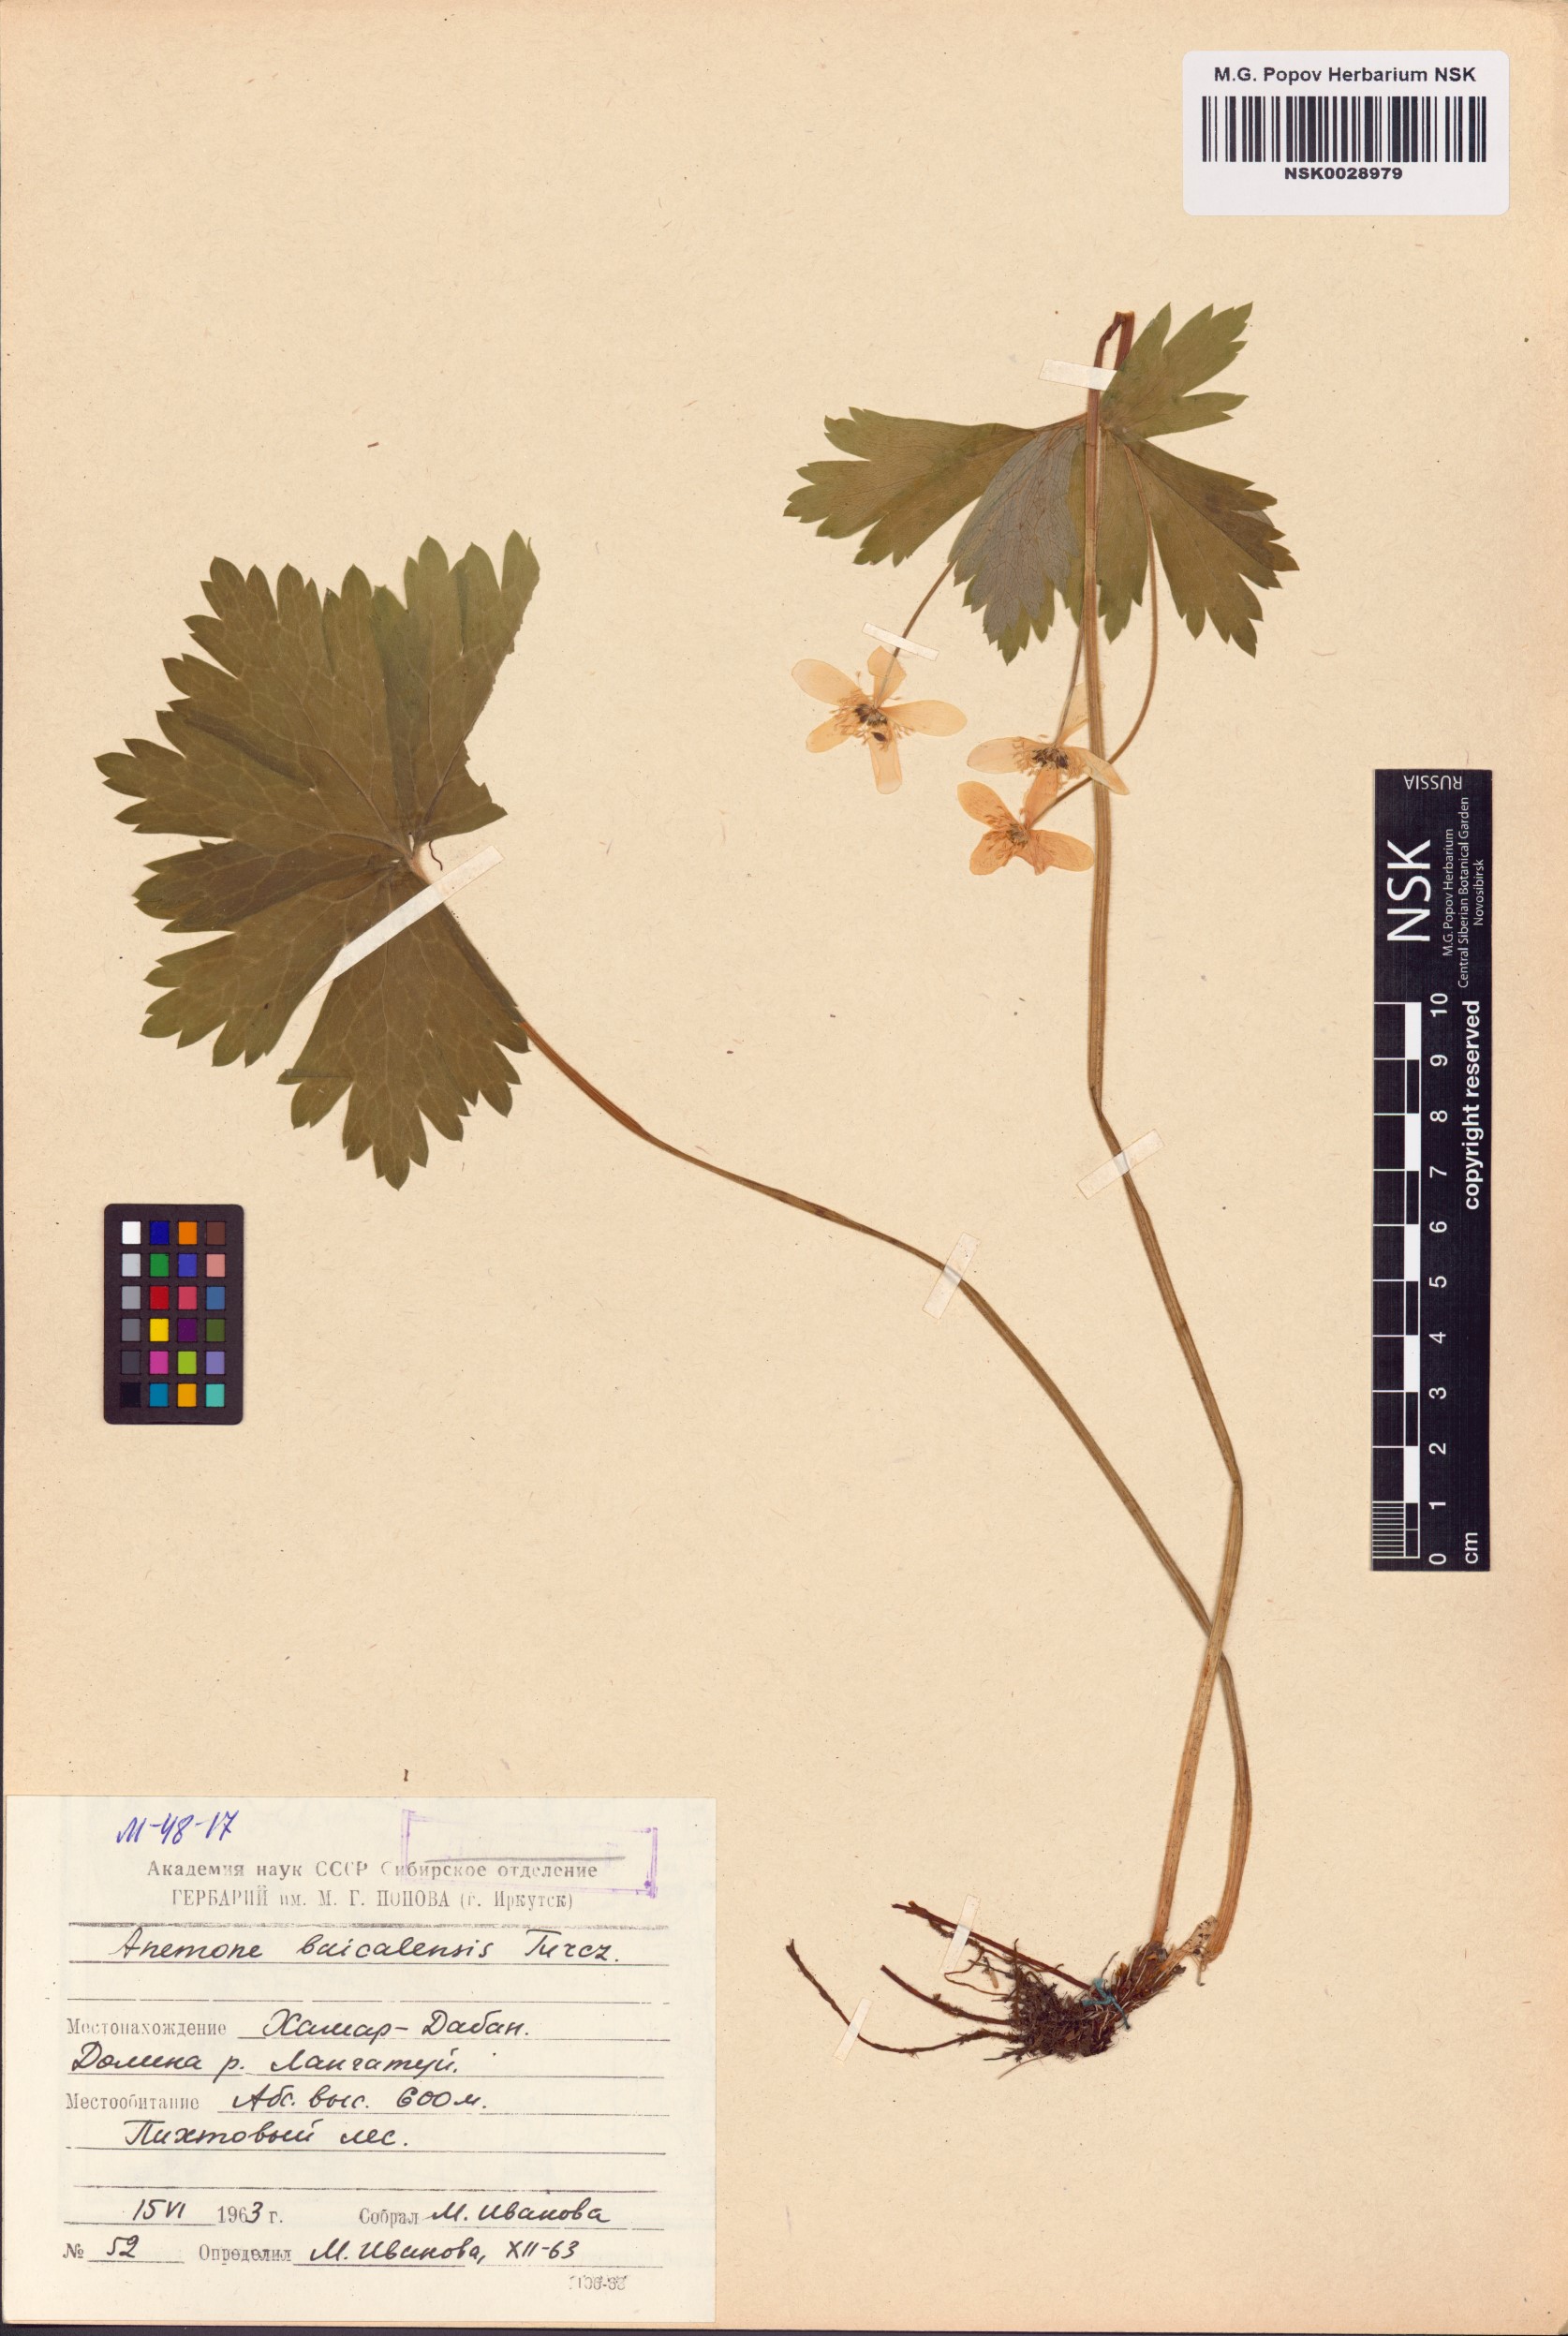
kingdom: Plantae
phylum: Tracheophyta
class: Magnoliopsida
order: Ranunculales
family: Ranunculaceae
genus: Anemonastrum
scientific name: Anemonastrum baicalense
